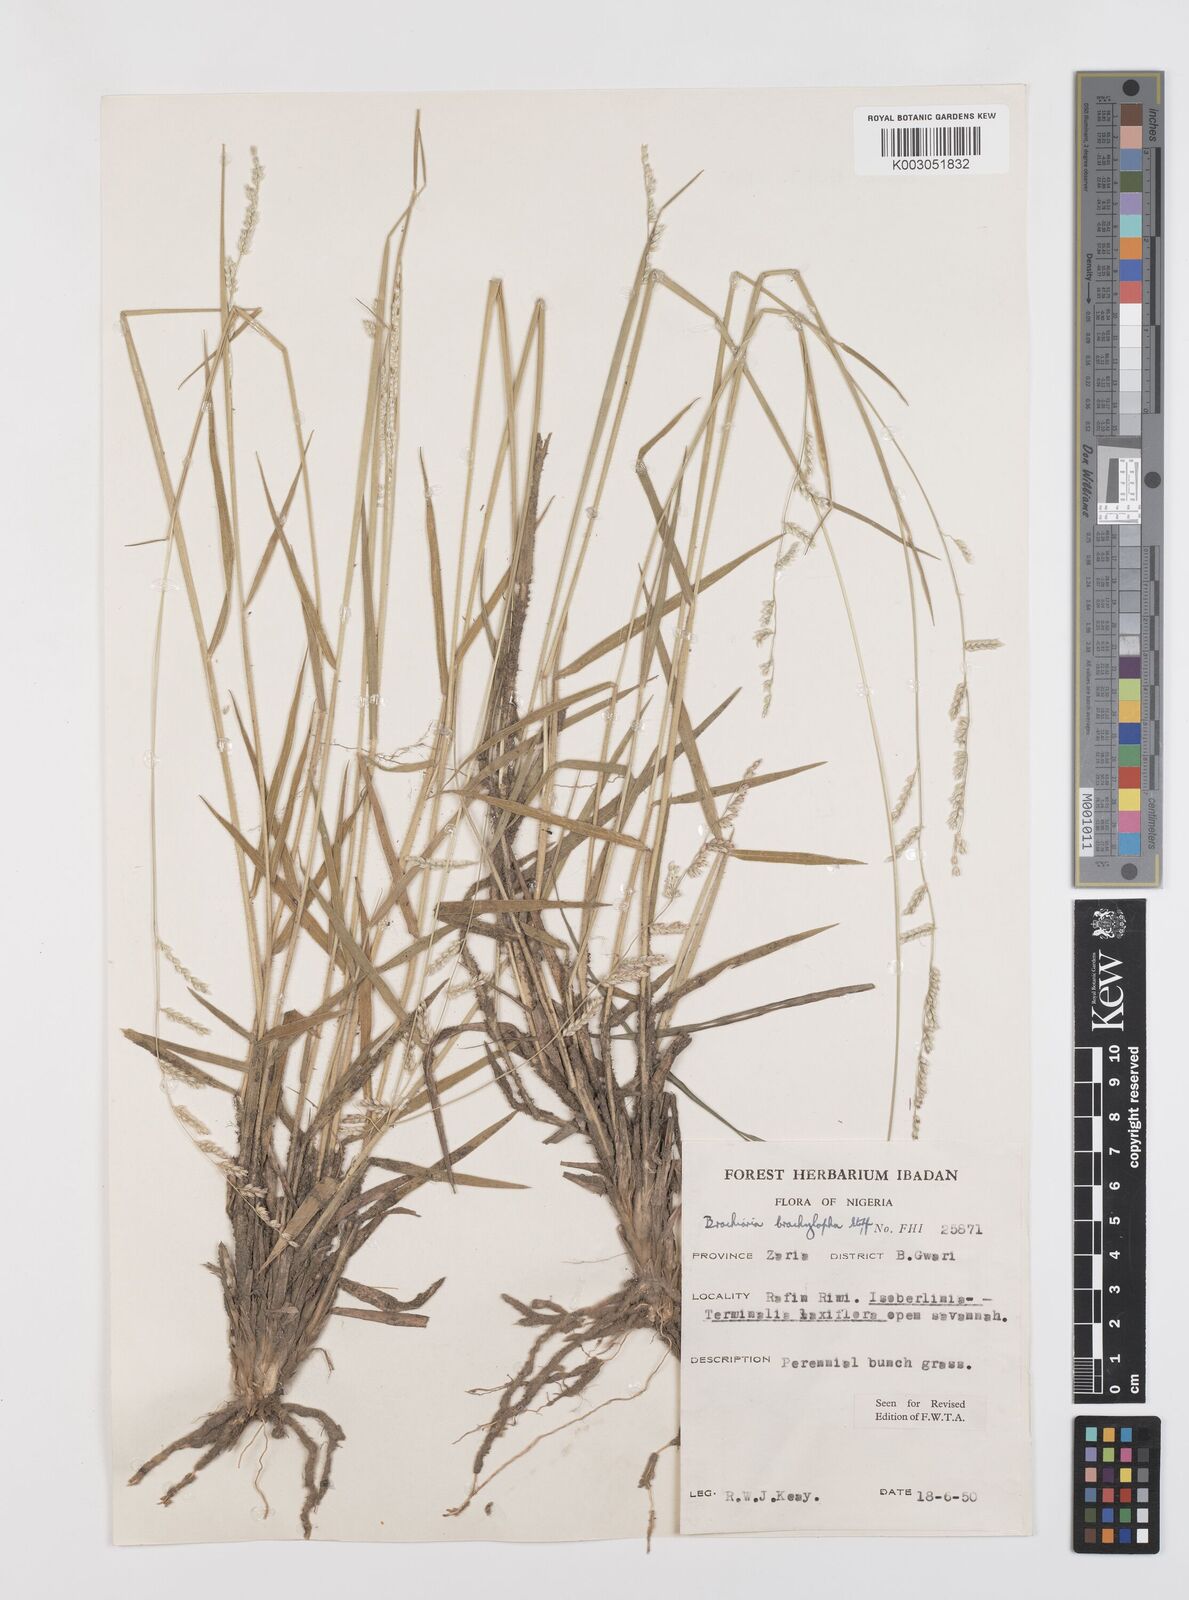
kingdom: Plantae
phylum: Tracheophyta
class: Liliopsida
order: Poales
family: Poaceae
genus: Urochloa
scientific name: Urochloa serrata
